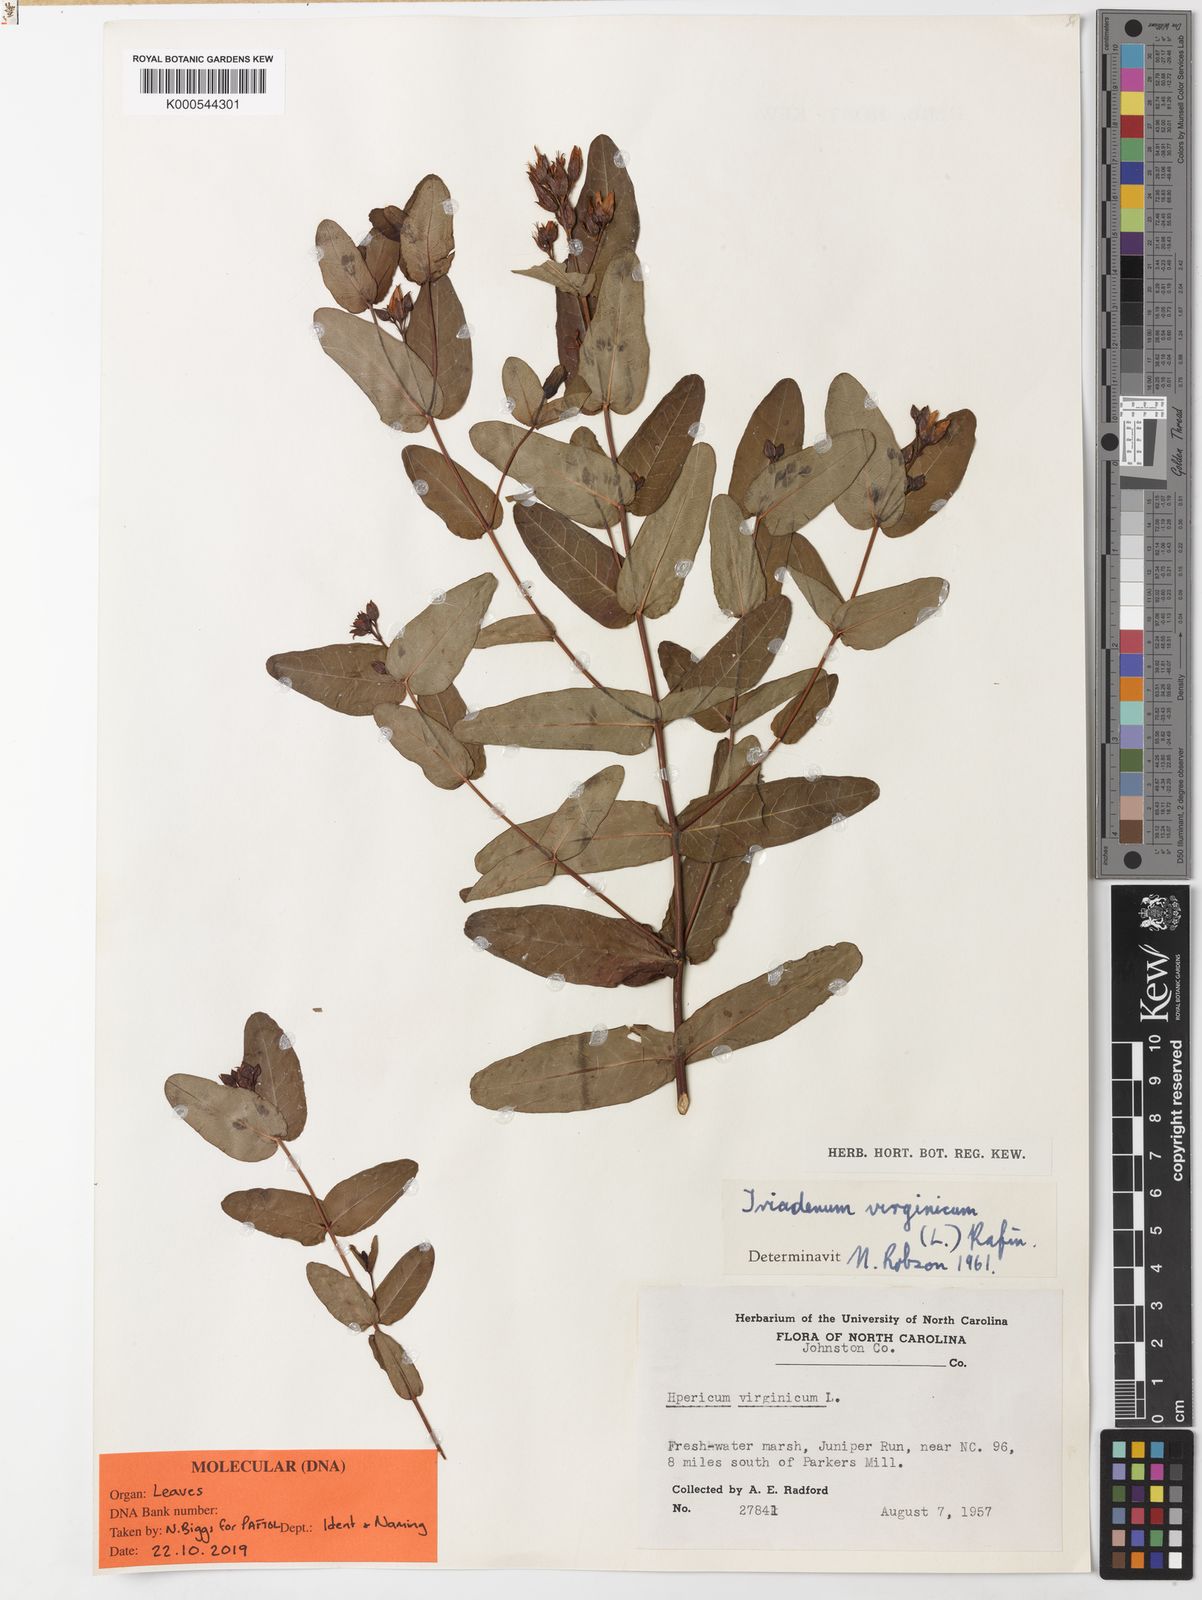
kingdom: Plantae
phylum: Tracheophyta
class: Magnoliopsida
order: Malpighiales
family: Hypericaceae
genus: Triadenum
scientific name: Triadenum virginicum
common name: Marsh st. john's-wort
